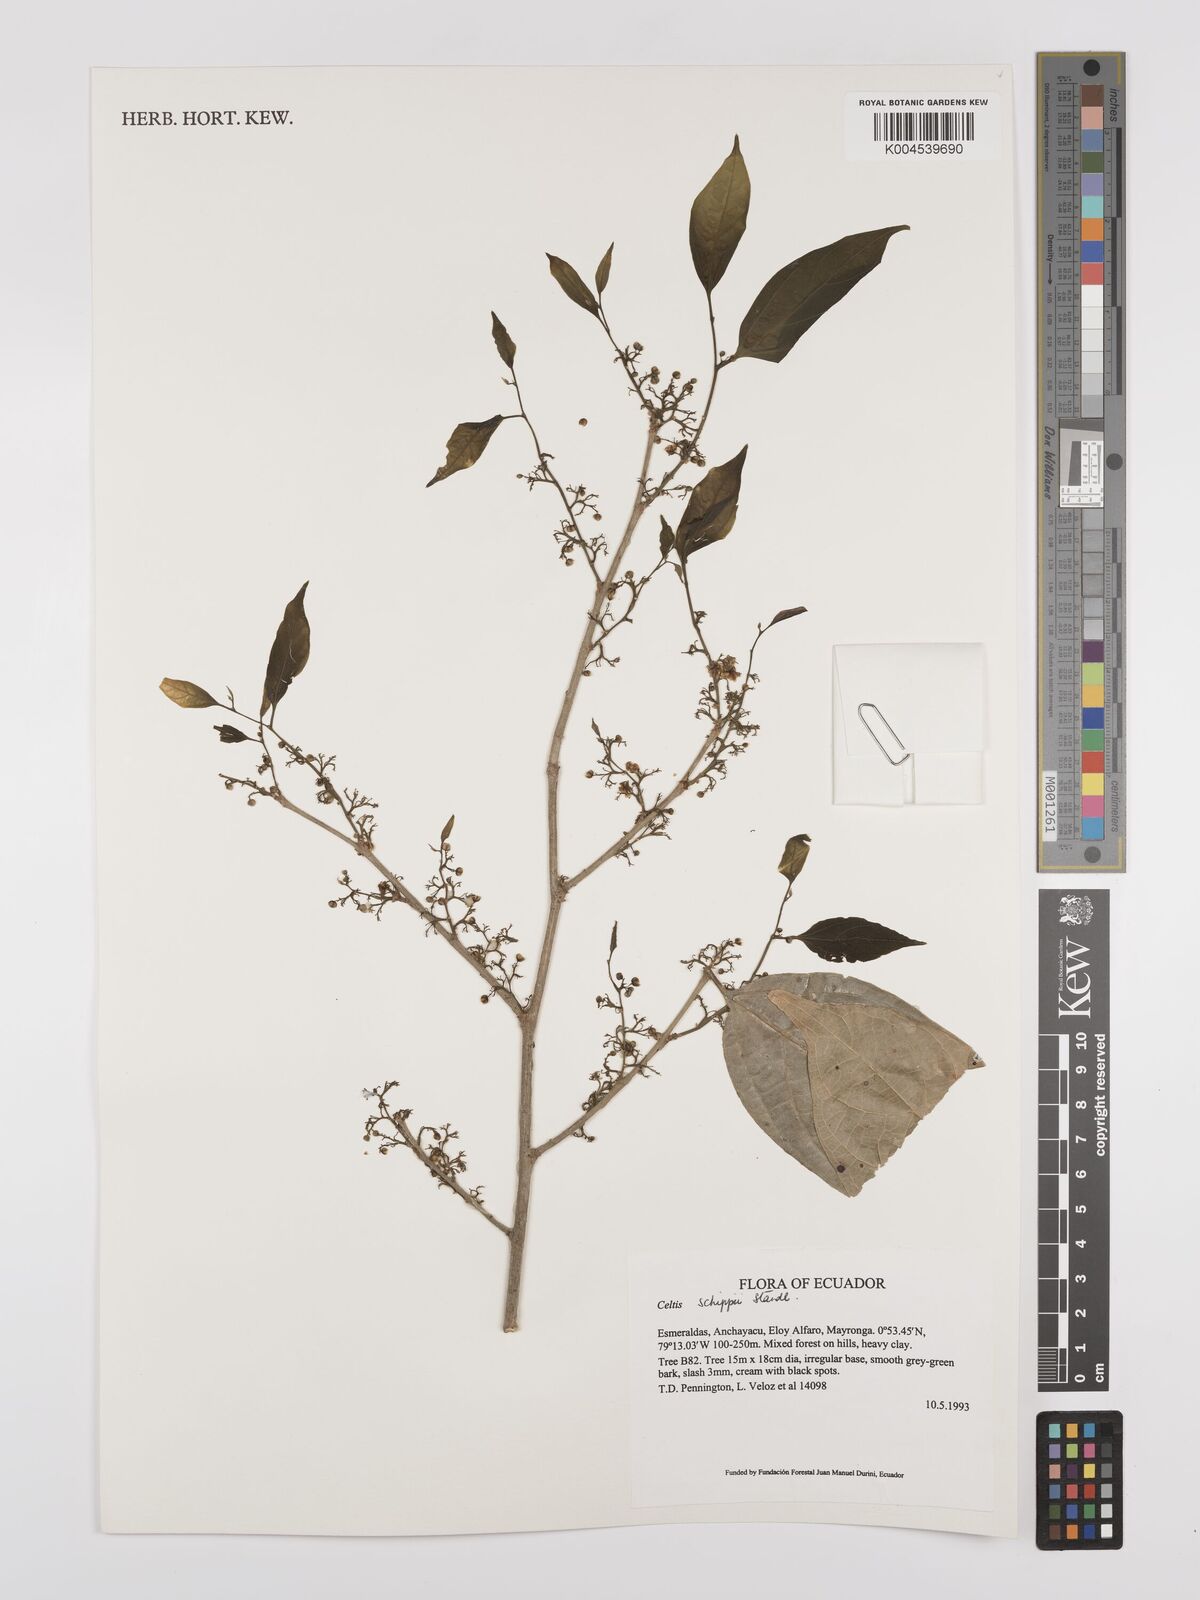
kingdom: Plantae
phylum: Tracheophyta
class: Magnoliopsida
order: Rosales
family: Cannabaceae
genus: Celtis
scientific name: Celtis schippii
